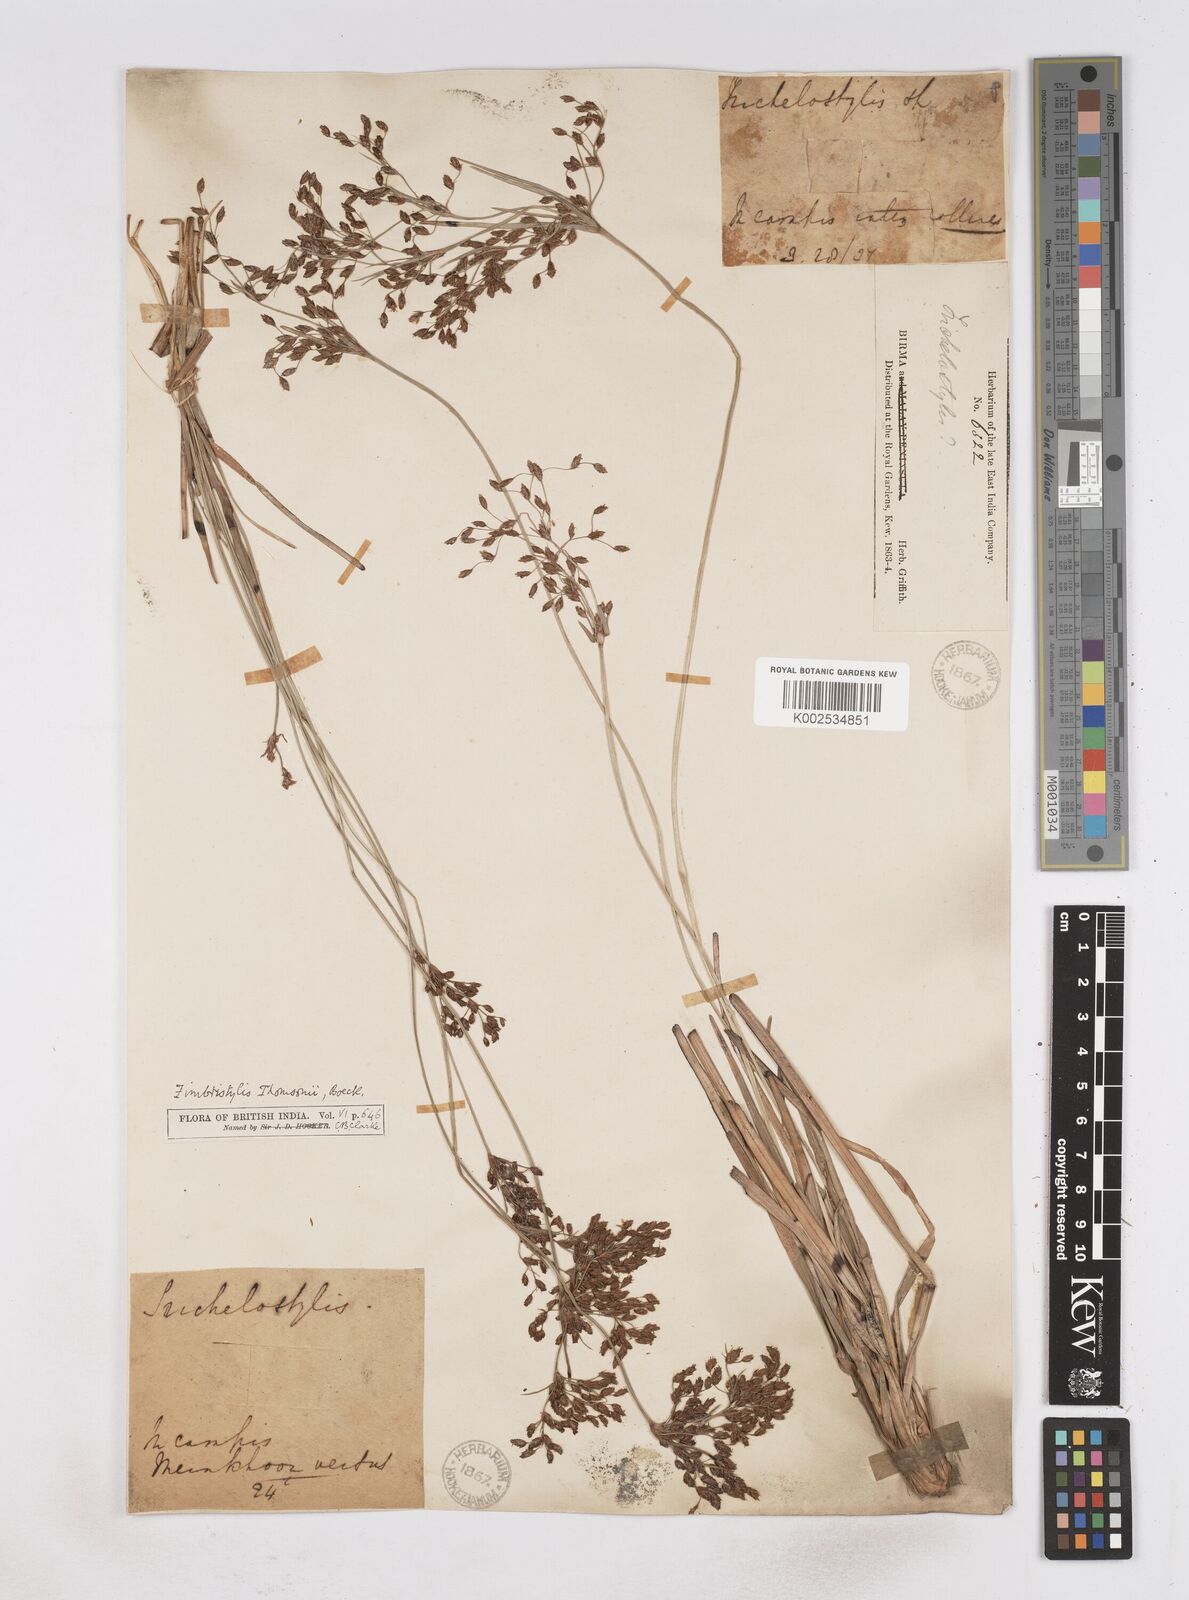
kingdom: Plantae
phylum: Tracheophyta
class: Liliopsida
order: Poales
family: Cyperaceae
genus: Fimbristylis
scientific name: Fimbristylis thomsonii
